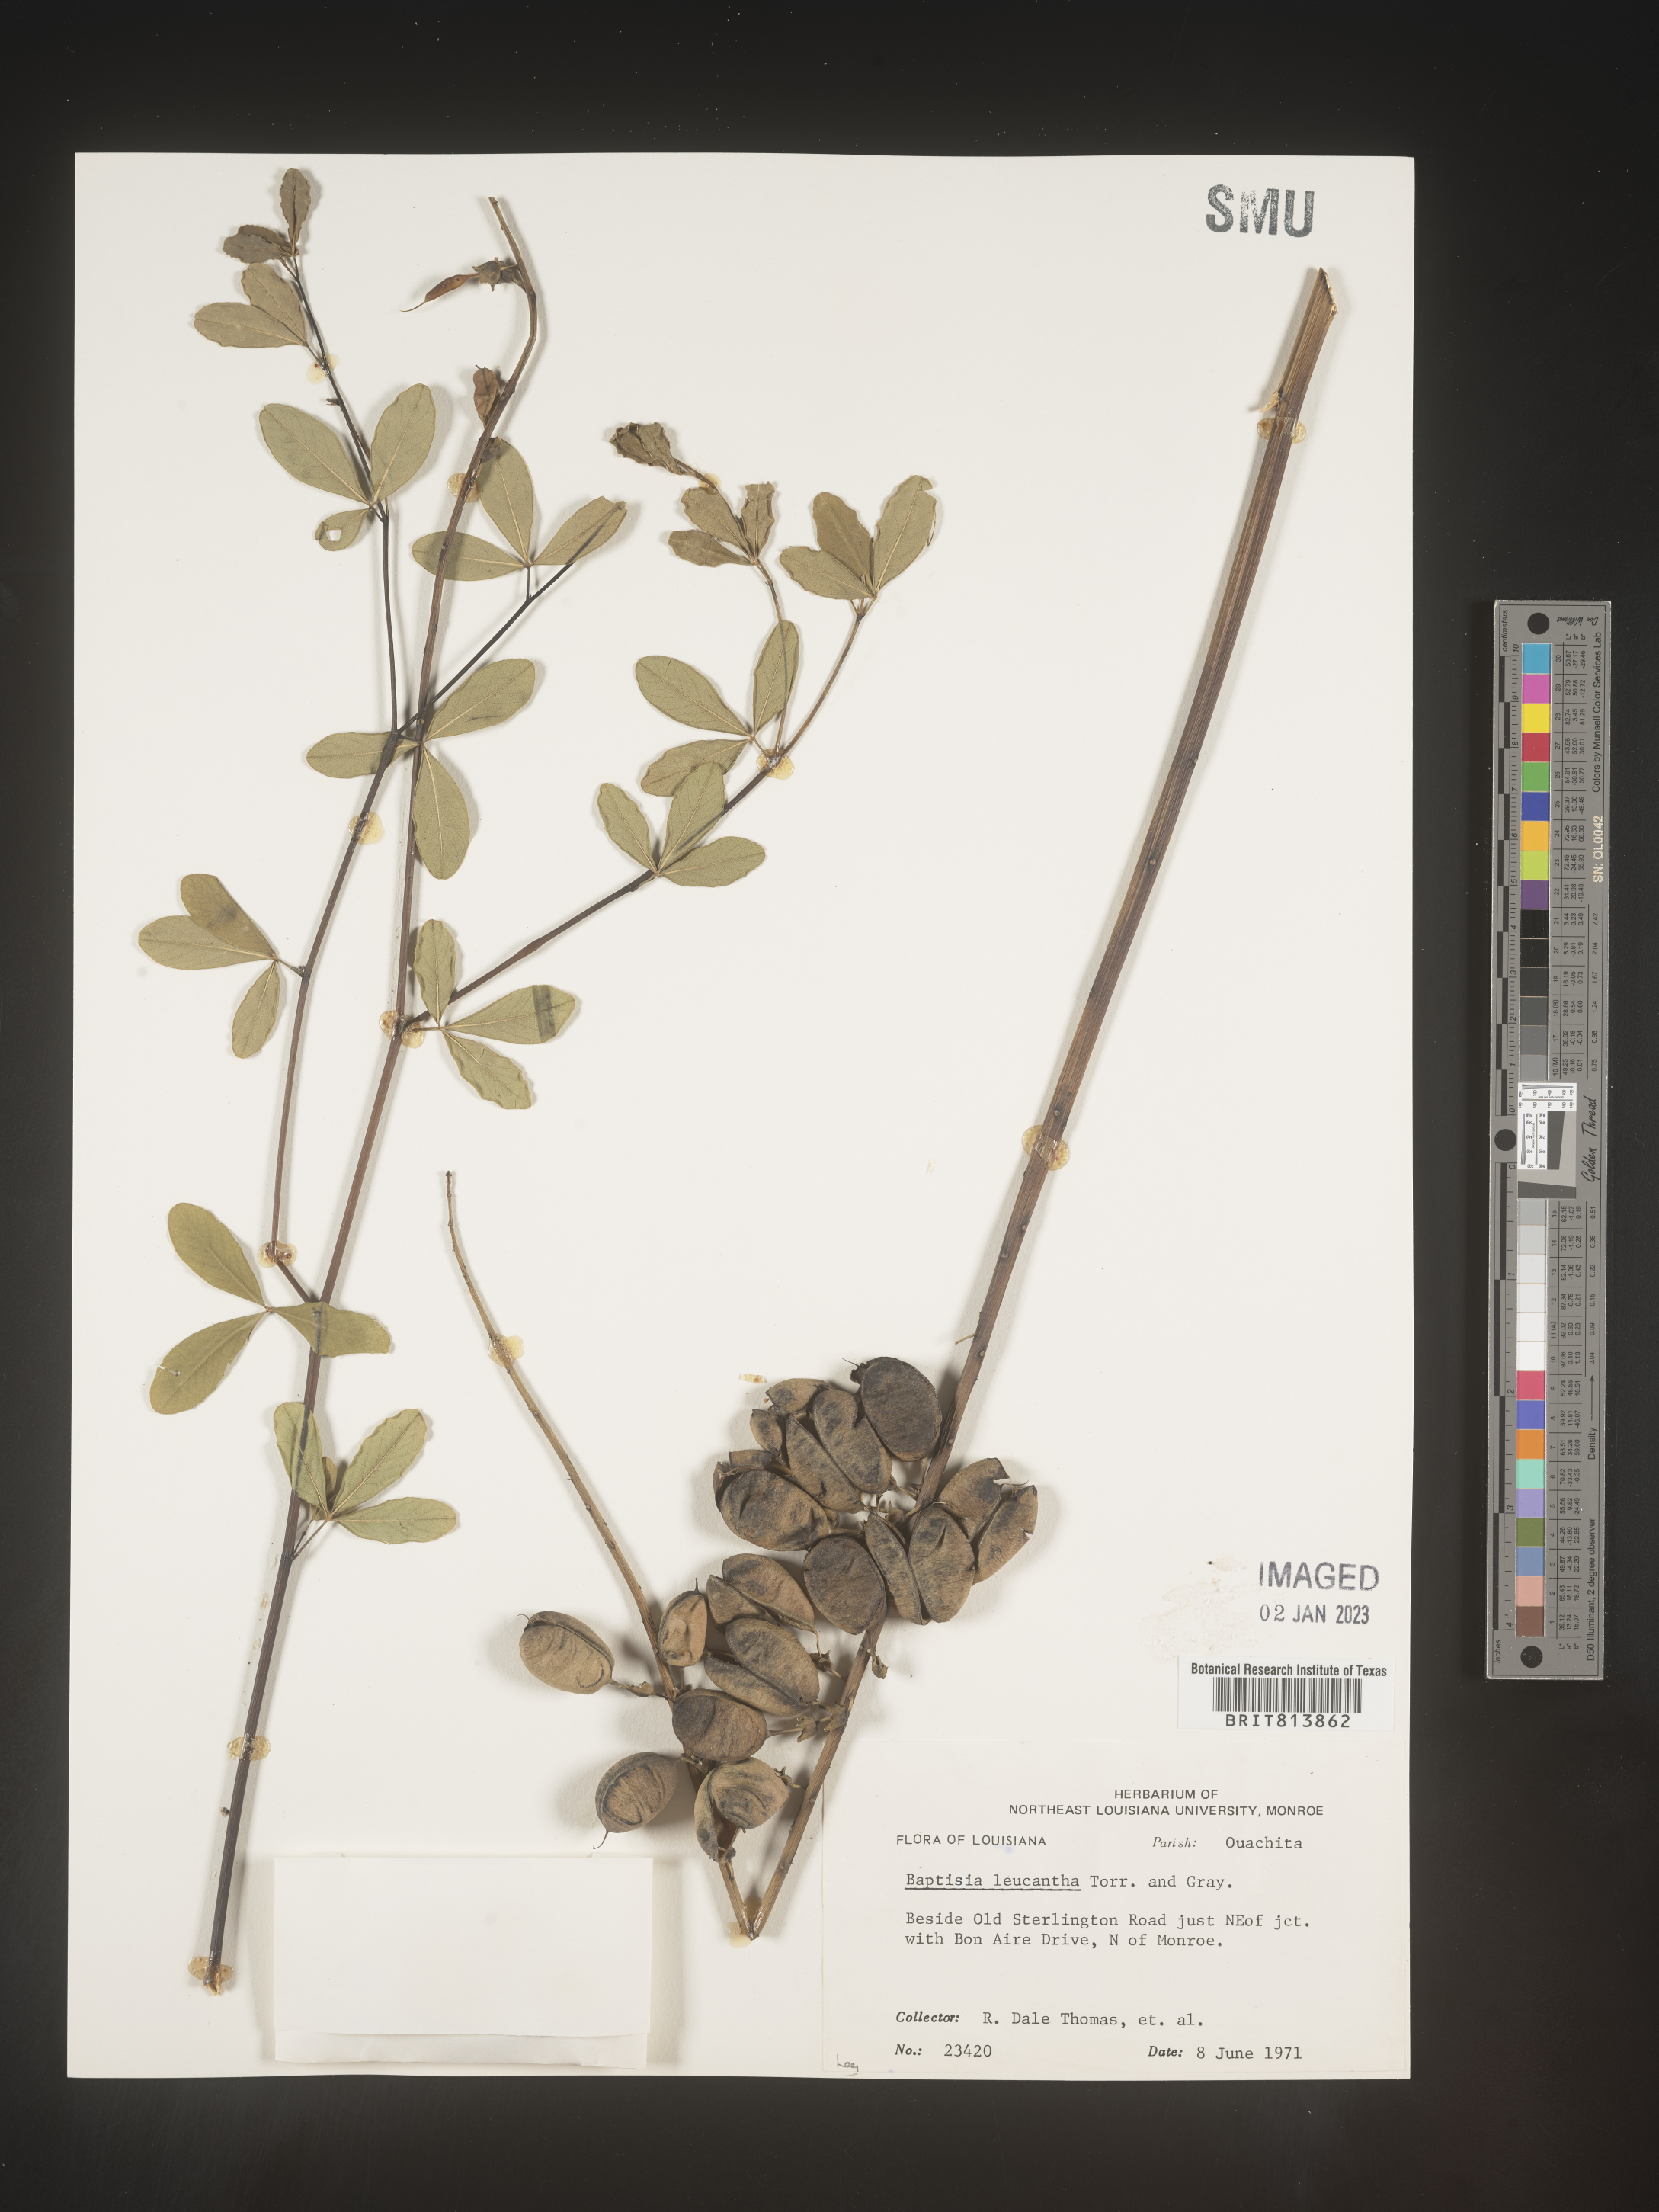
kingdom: Plantae
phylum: Tracheophyta
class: Magnoliopsida
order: Fabales
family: Fabaceae
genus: Baptisia
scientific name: Baptisia alba
